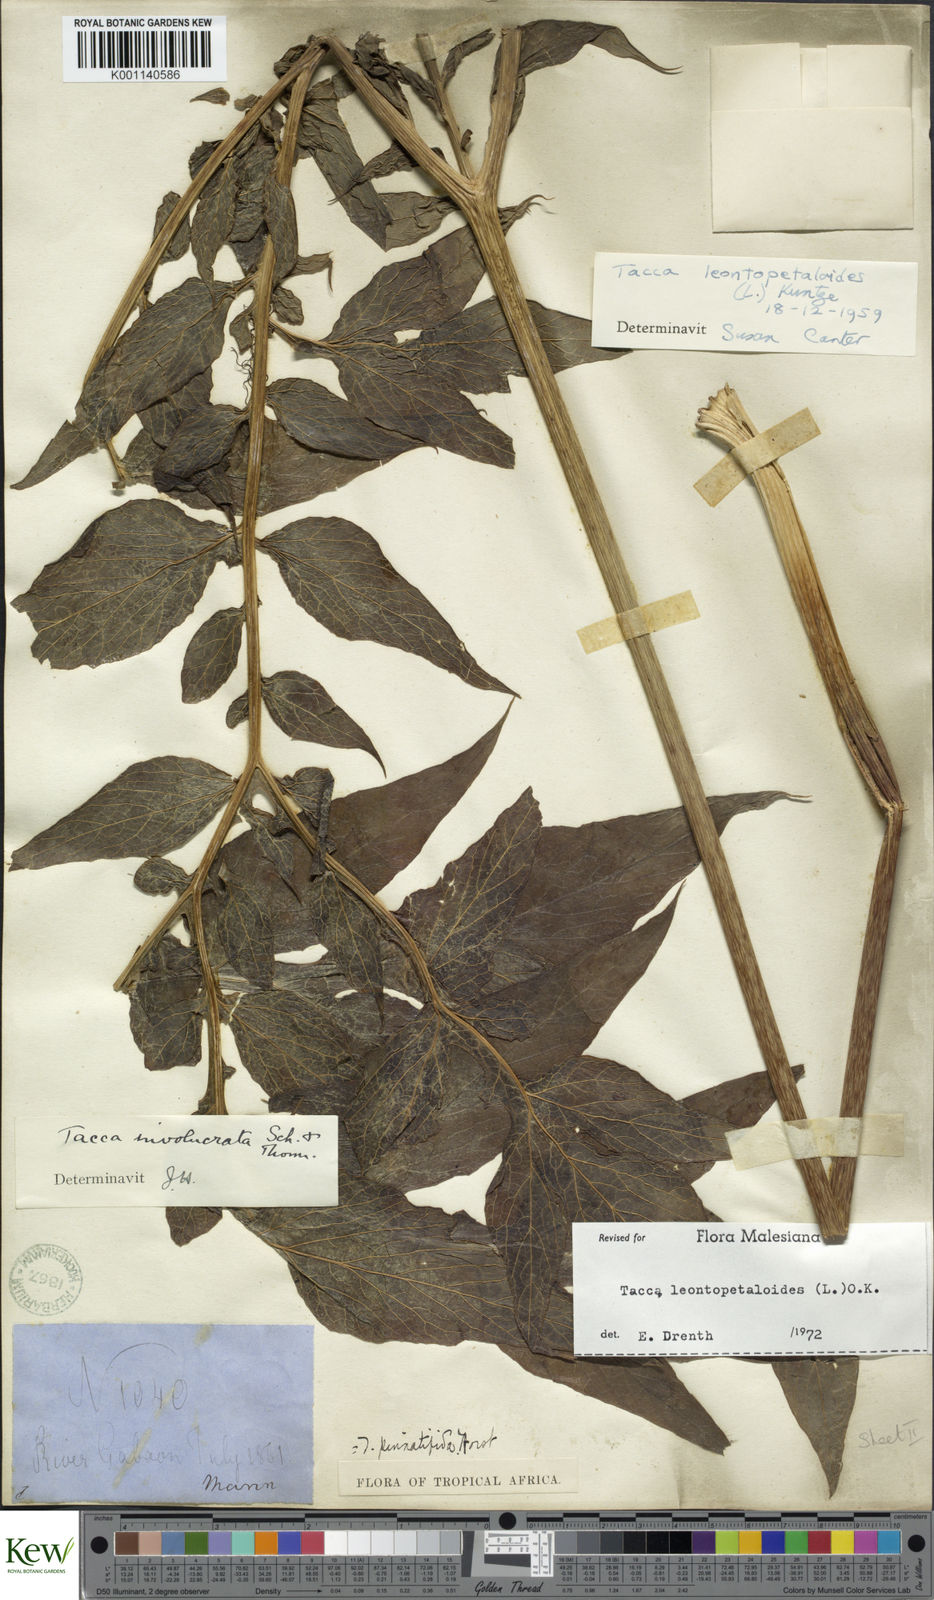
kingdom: Plantae
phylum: Tracheophyta
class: Liliopsida
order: Dioscoreales
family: Dioscoreaceae
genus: Tacca
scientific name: Tacca leontopetaloides
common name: Arrowroot
